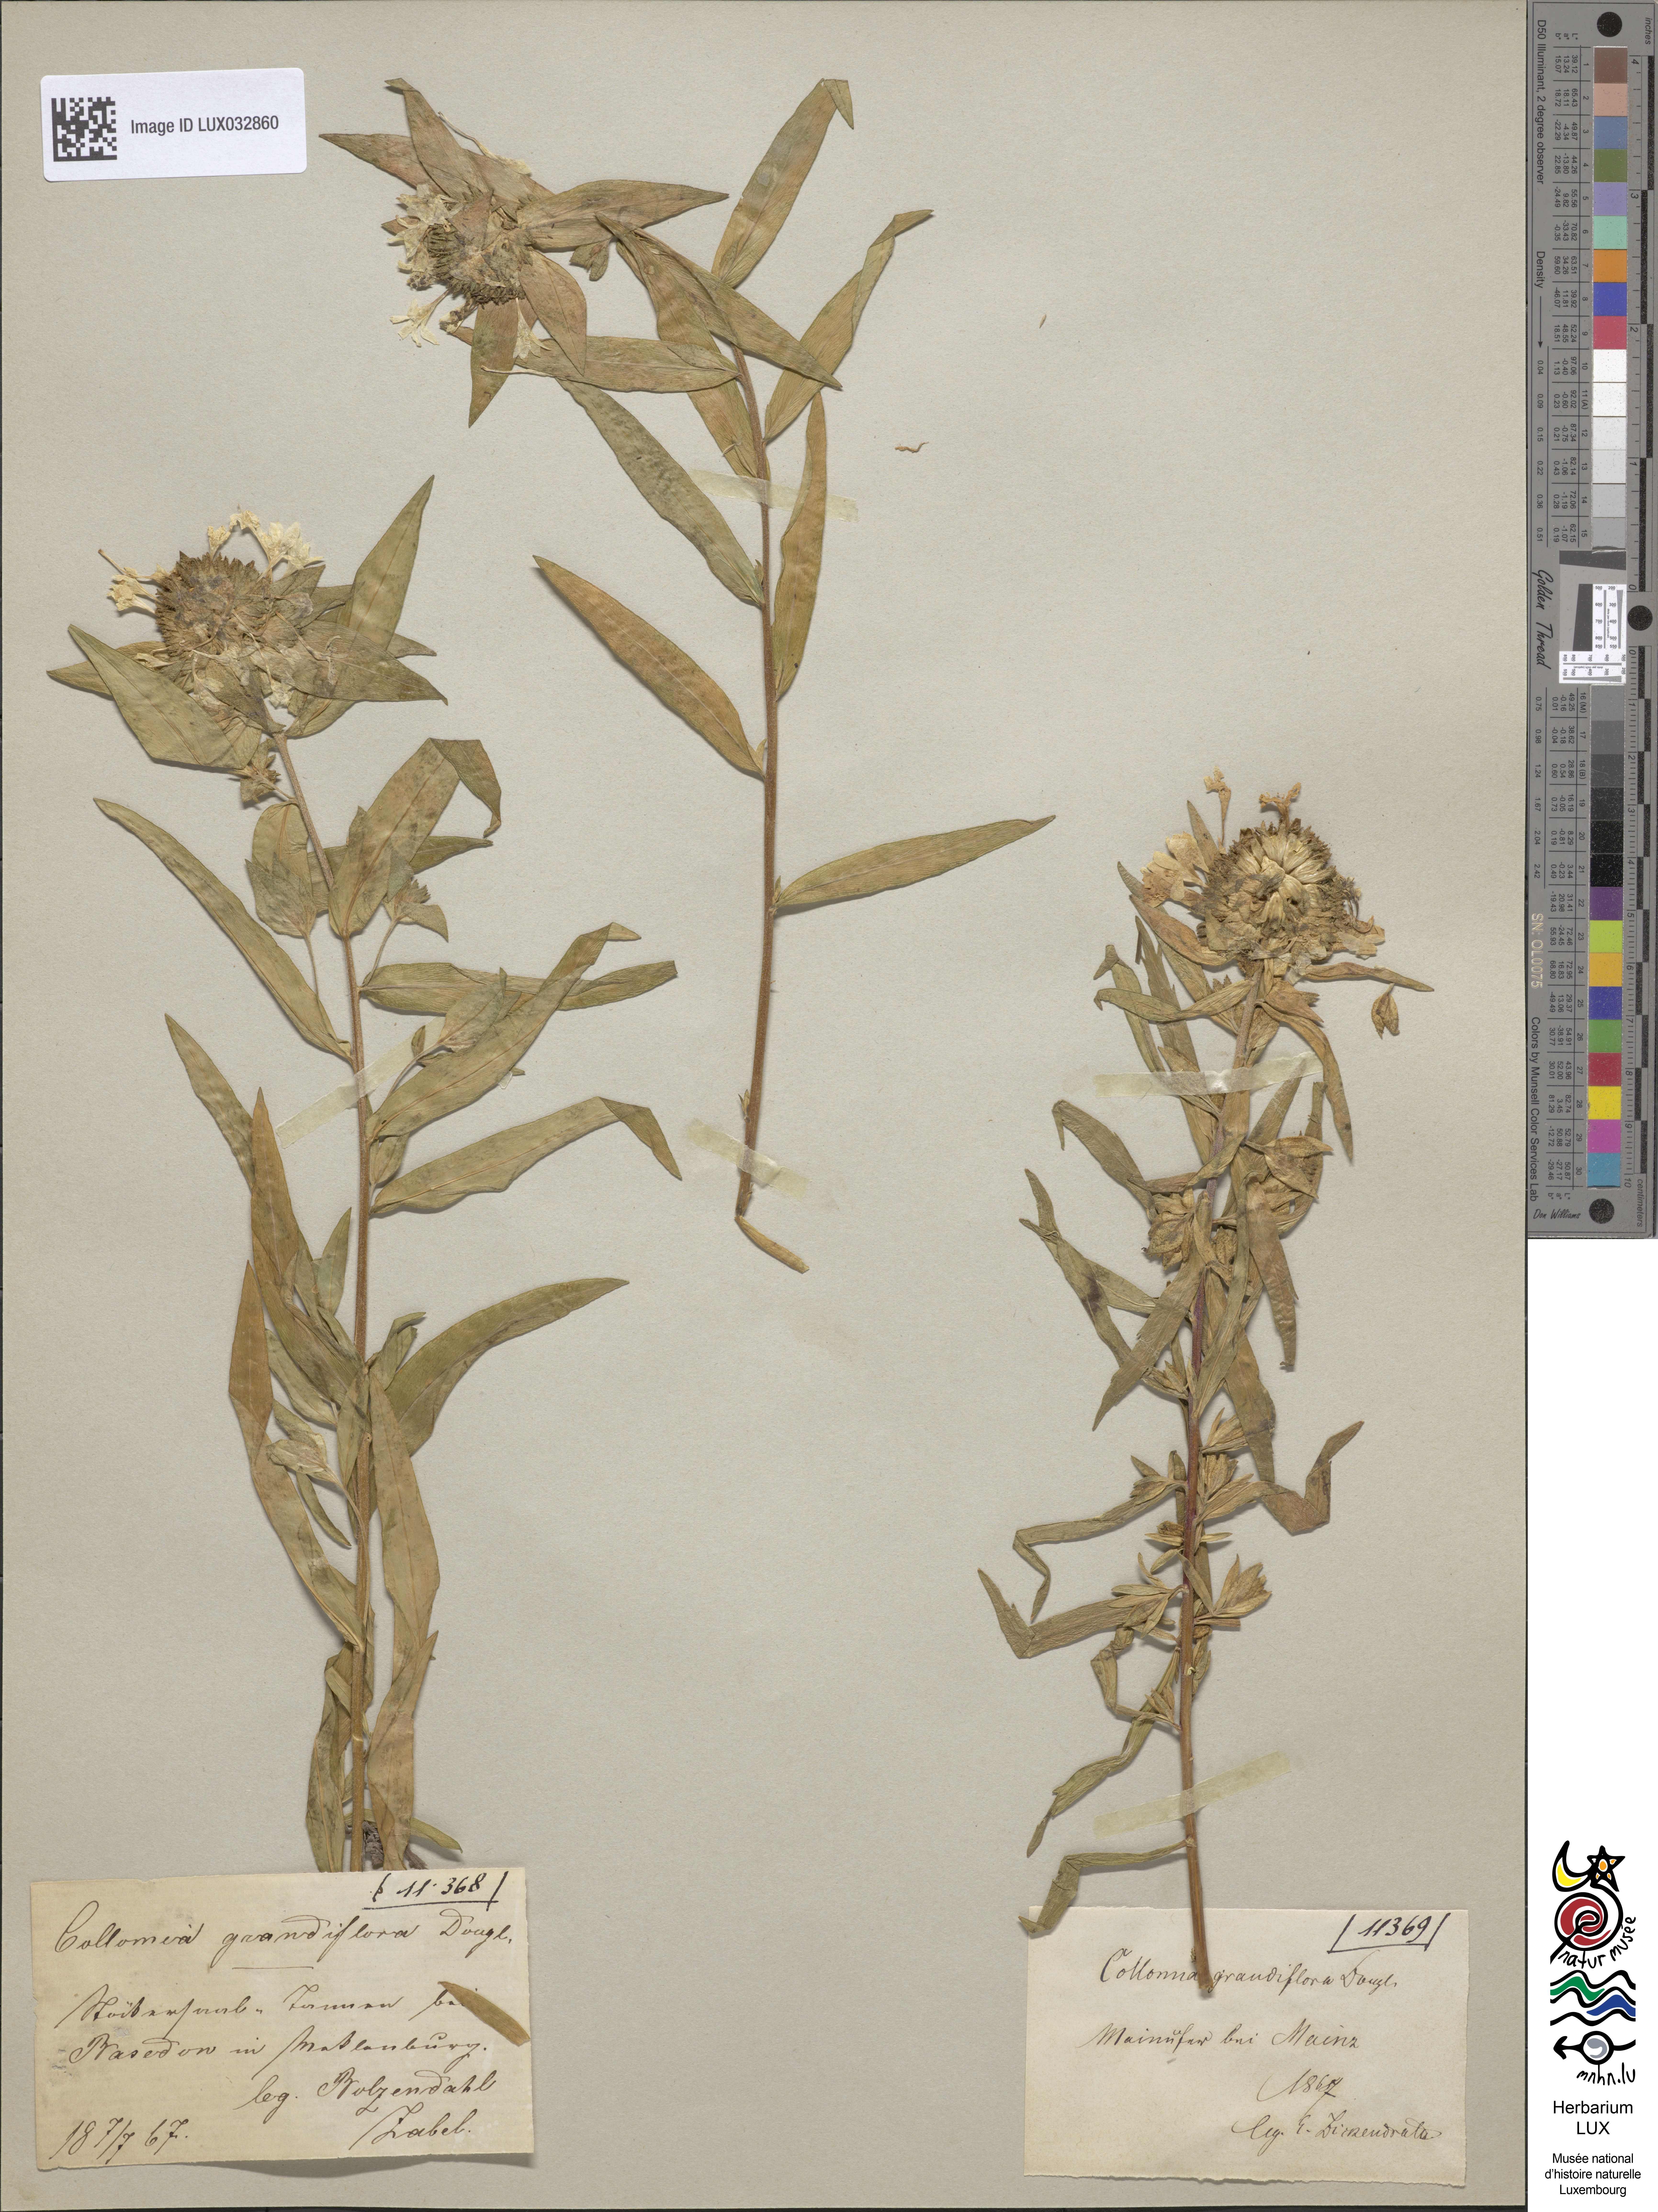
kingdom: Plantae
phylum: Tracheophyta
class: Magnoliopsida
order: Ericales
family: Polemoniaceae
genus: Collomia
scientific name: Collomia grandiflora
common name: California strawflower
